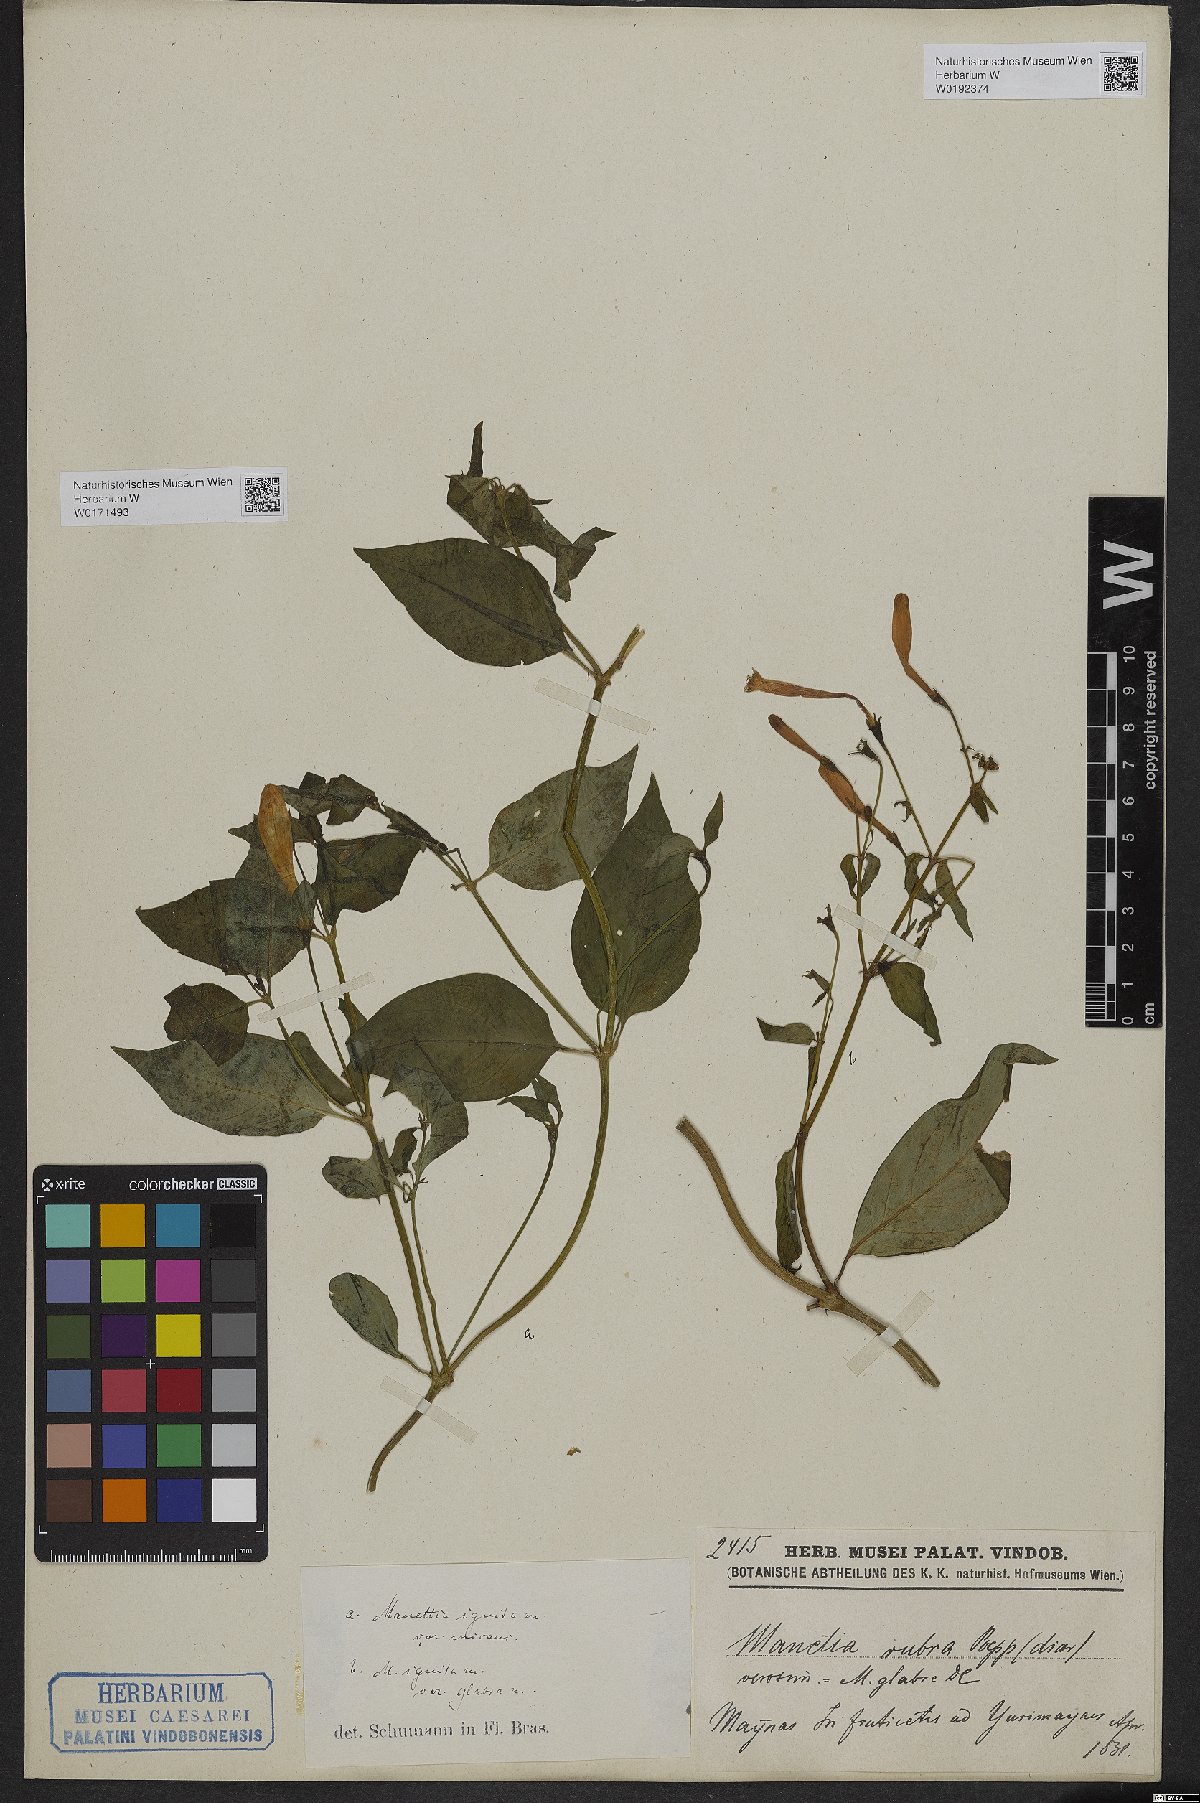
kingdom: Plantae
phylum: Tracheophyta
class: Magnoliopsida
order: Gentianales
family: Rubiaceae
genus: Manettia
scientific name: Manettia cordifolia
